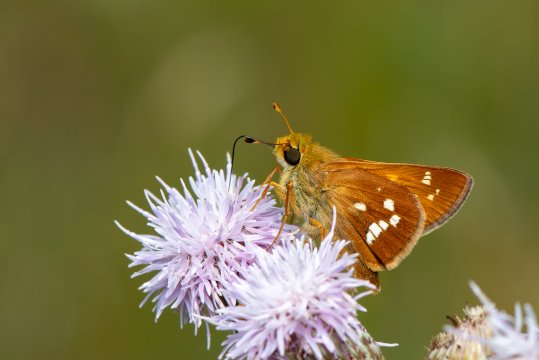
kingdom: Animalia
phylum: Arthropoda
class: Insecta
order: Lepidoptera
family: Hesperiidae
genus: Hesperia
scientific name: Hesperia leonardus
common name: Leonard's Skipper
